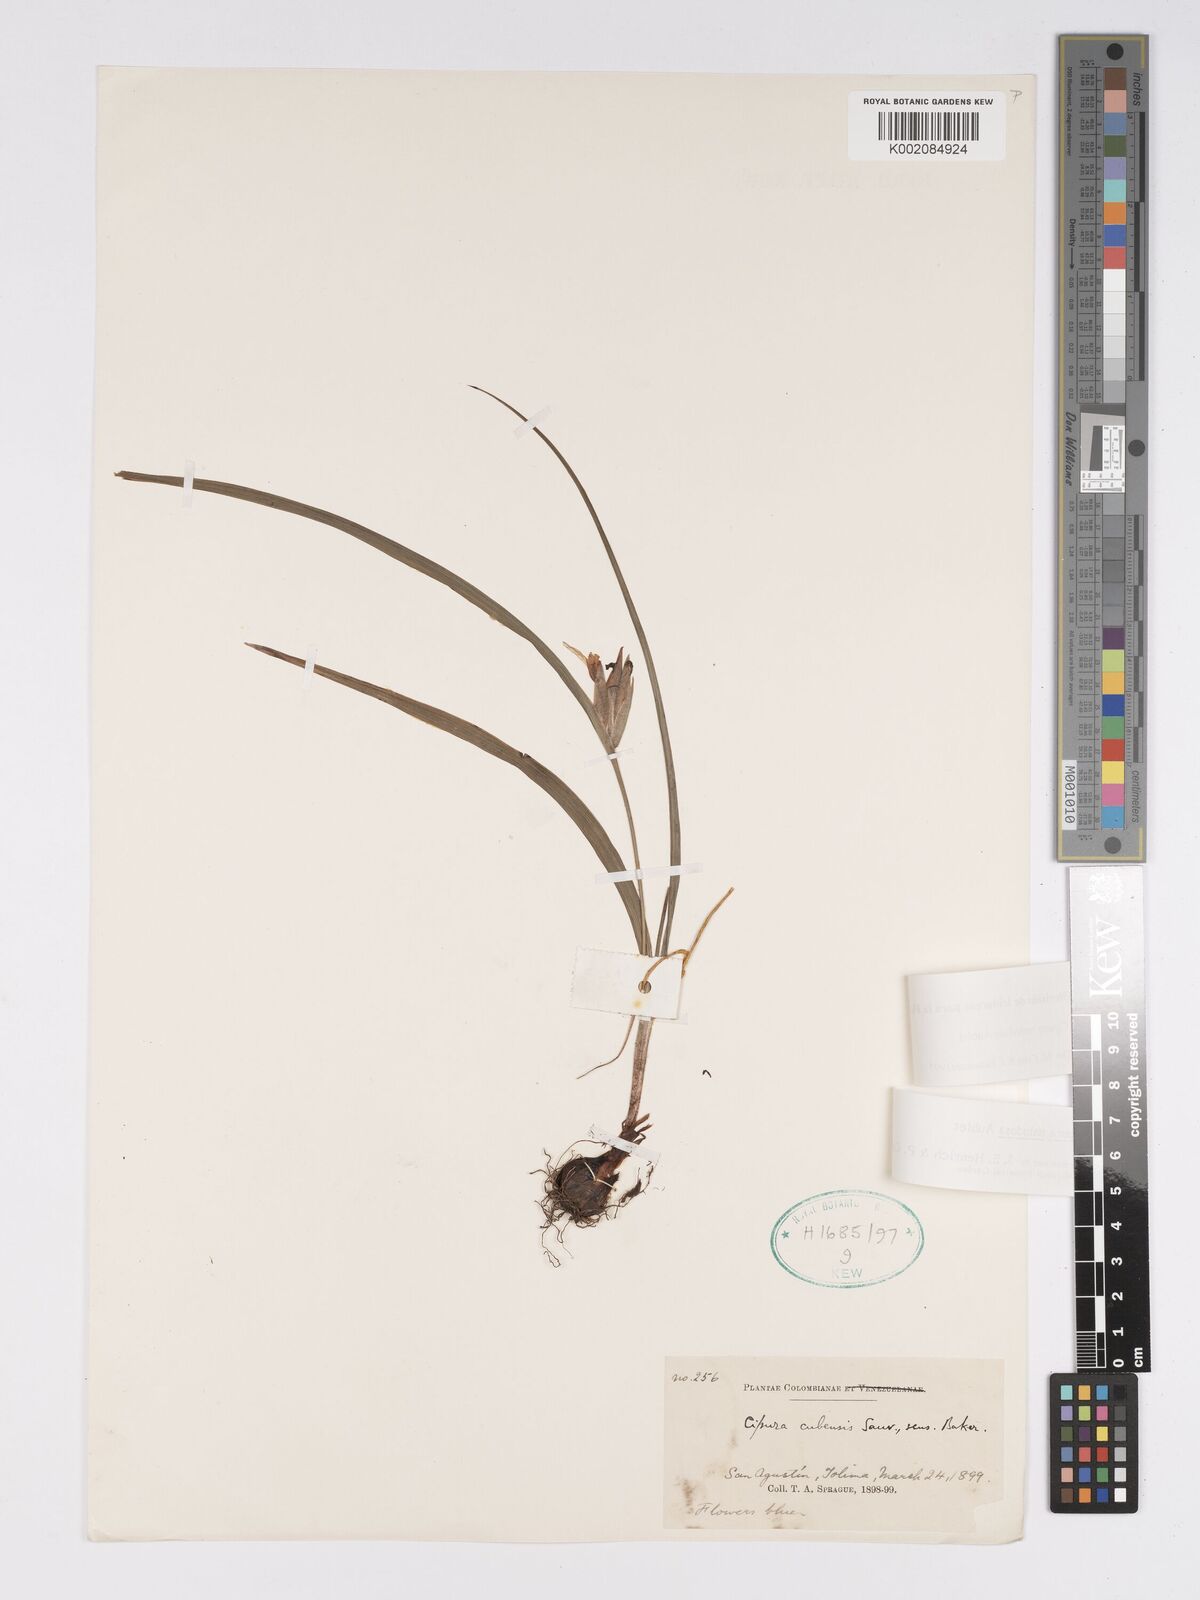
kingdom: Plantae
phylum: Tracheophyta
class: Liliopsida
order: Asparagales
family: Iridaceae
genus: Cipura
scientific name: Cipura paludosa
